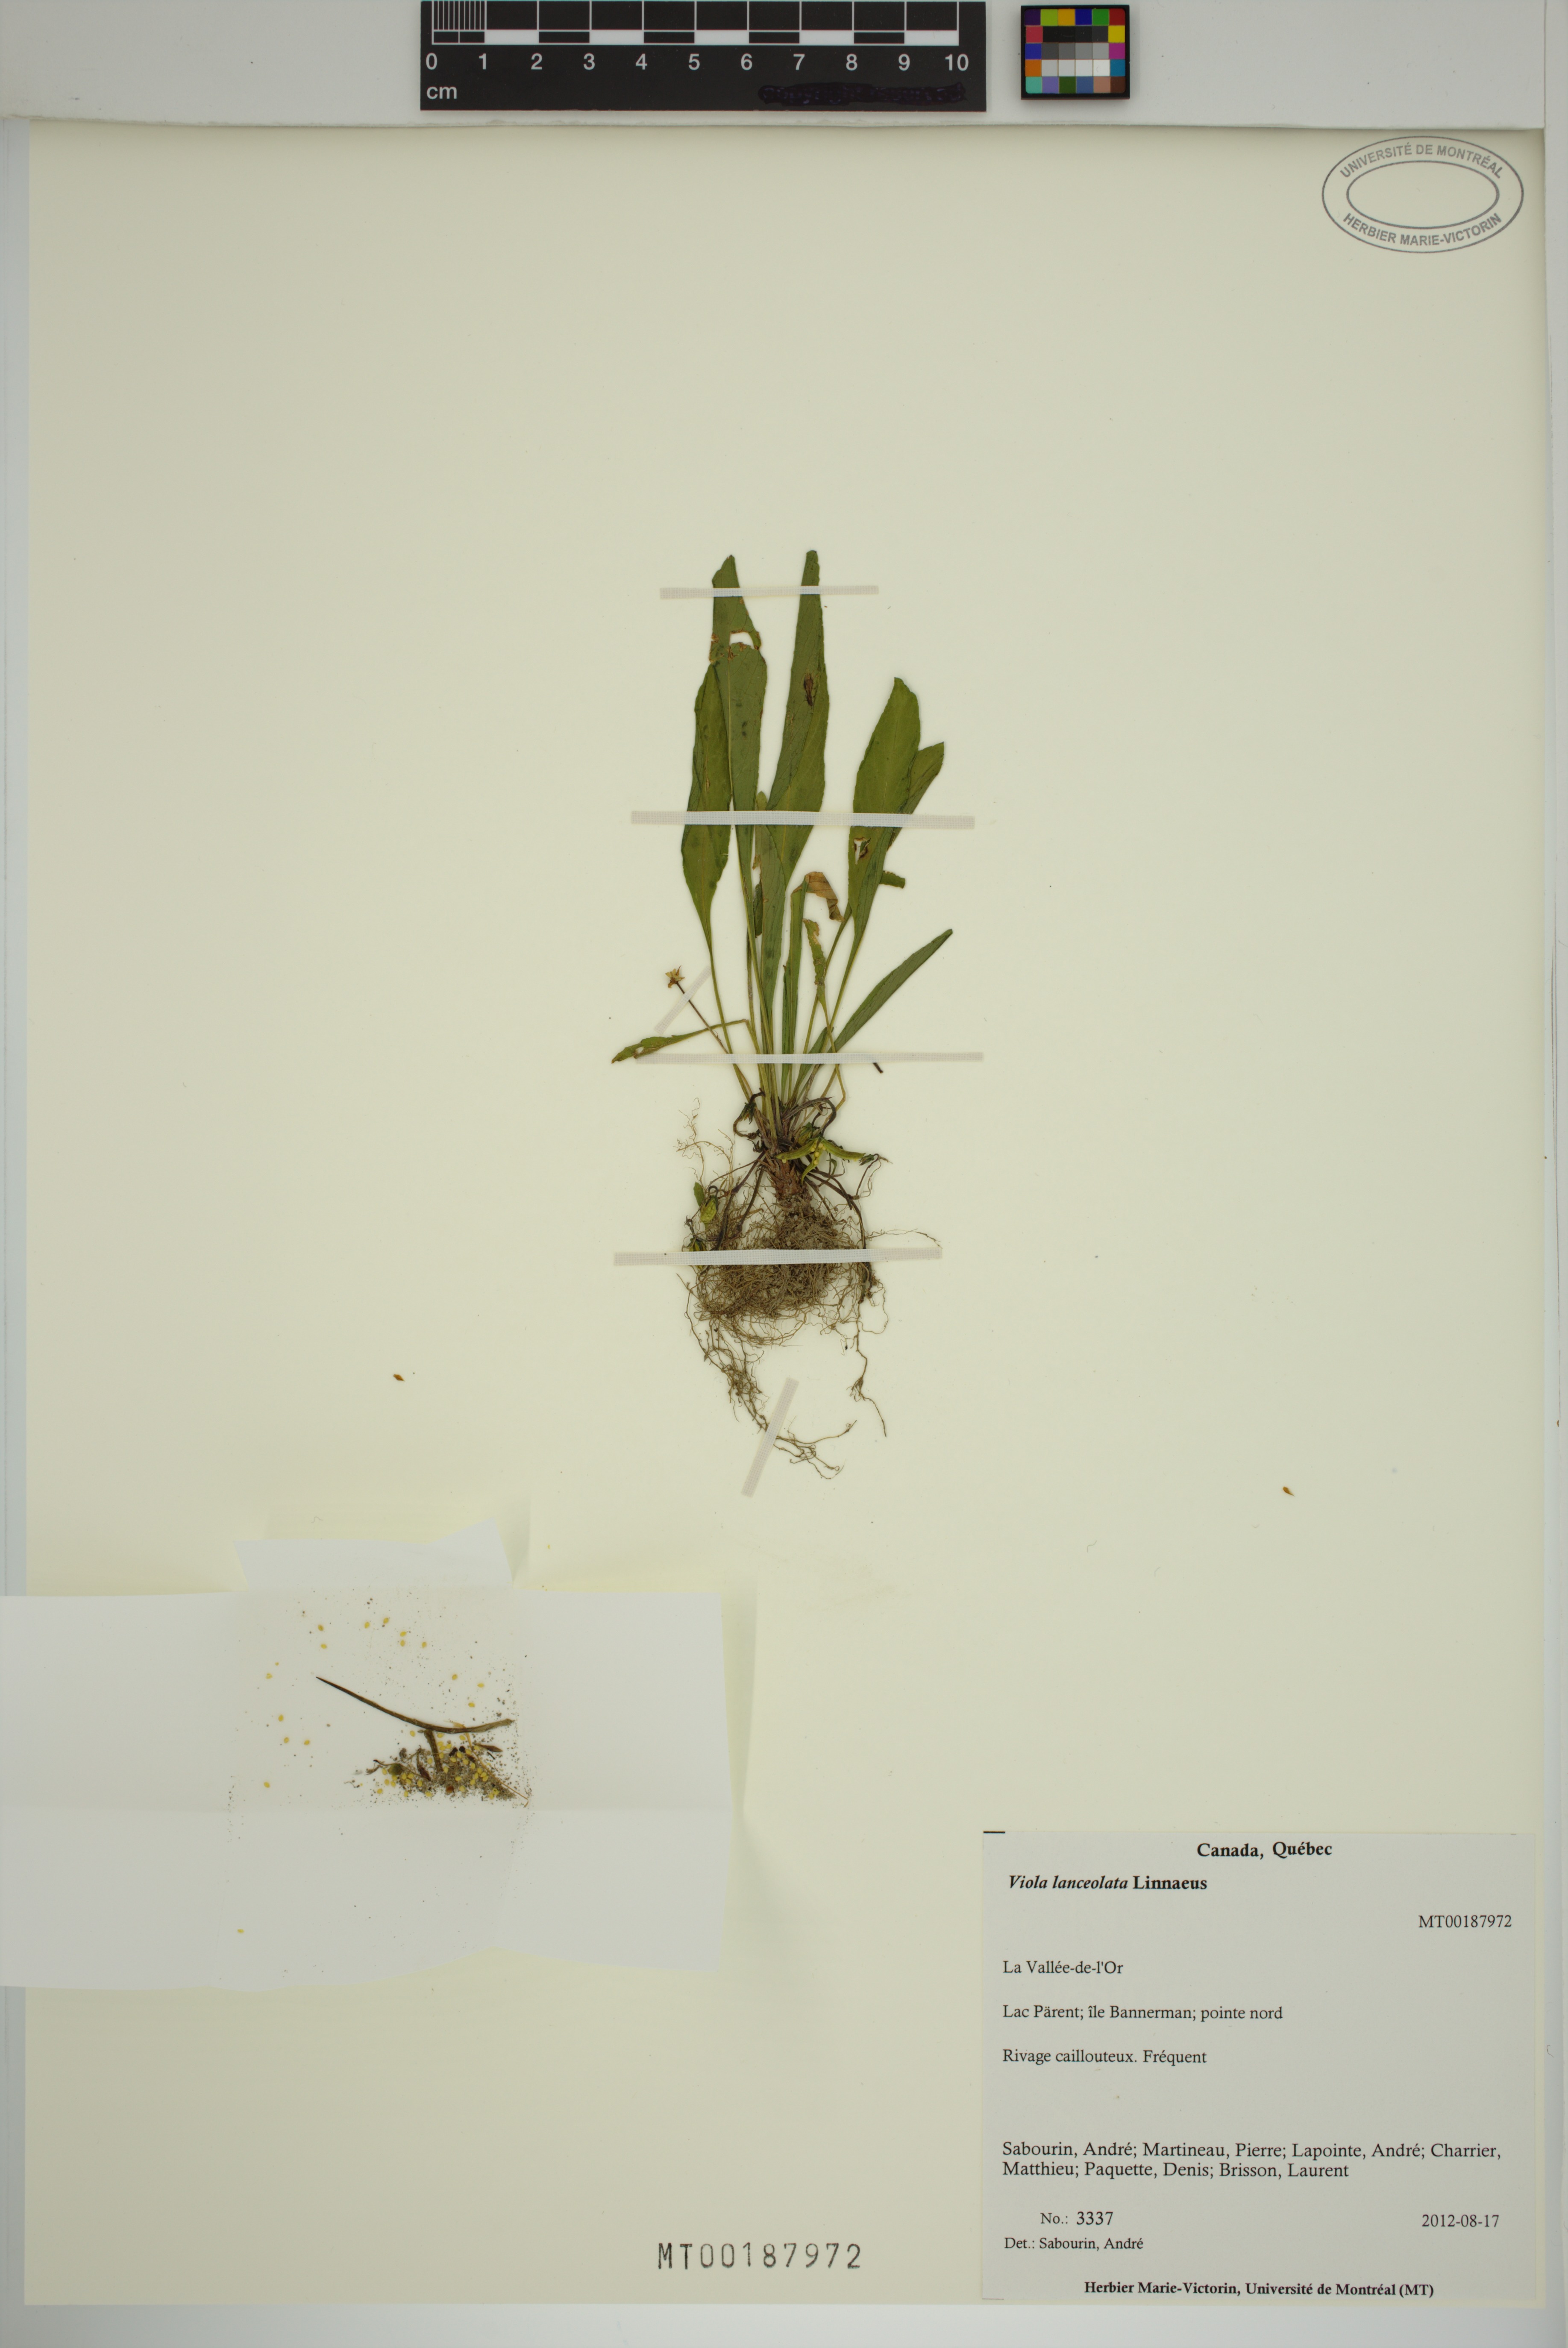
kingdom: Plantae
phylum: Tracheophyta
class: Magnoliopsida
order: Malpighiales
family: Violaceae
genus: Viola
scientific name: Viola lanceolata
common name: Bog white violet
